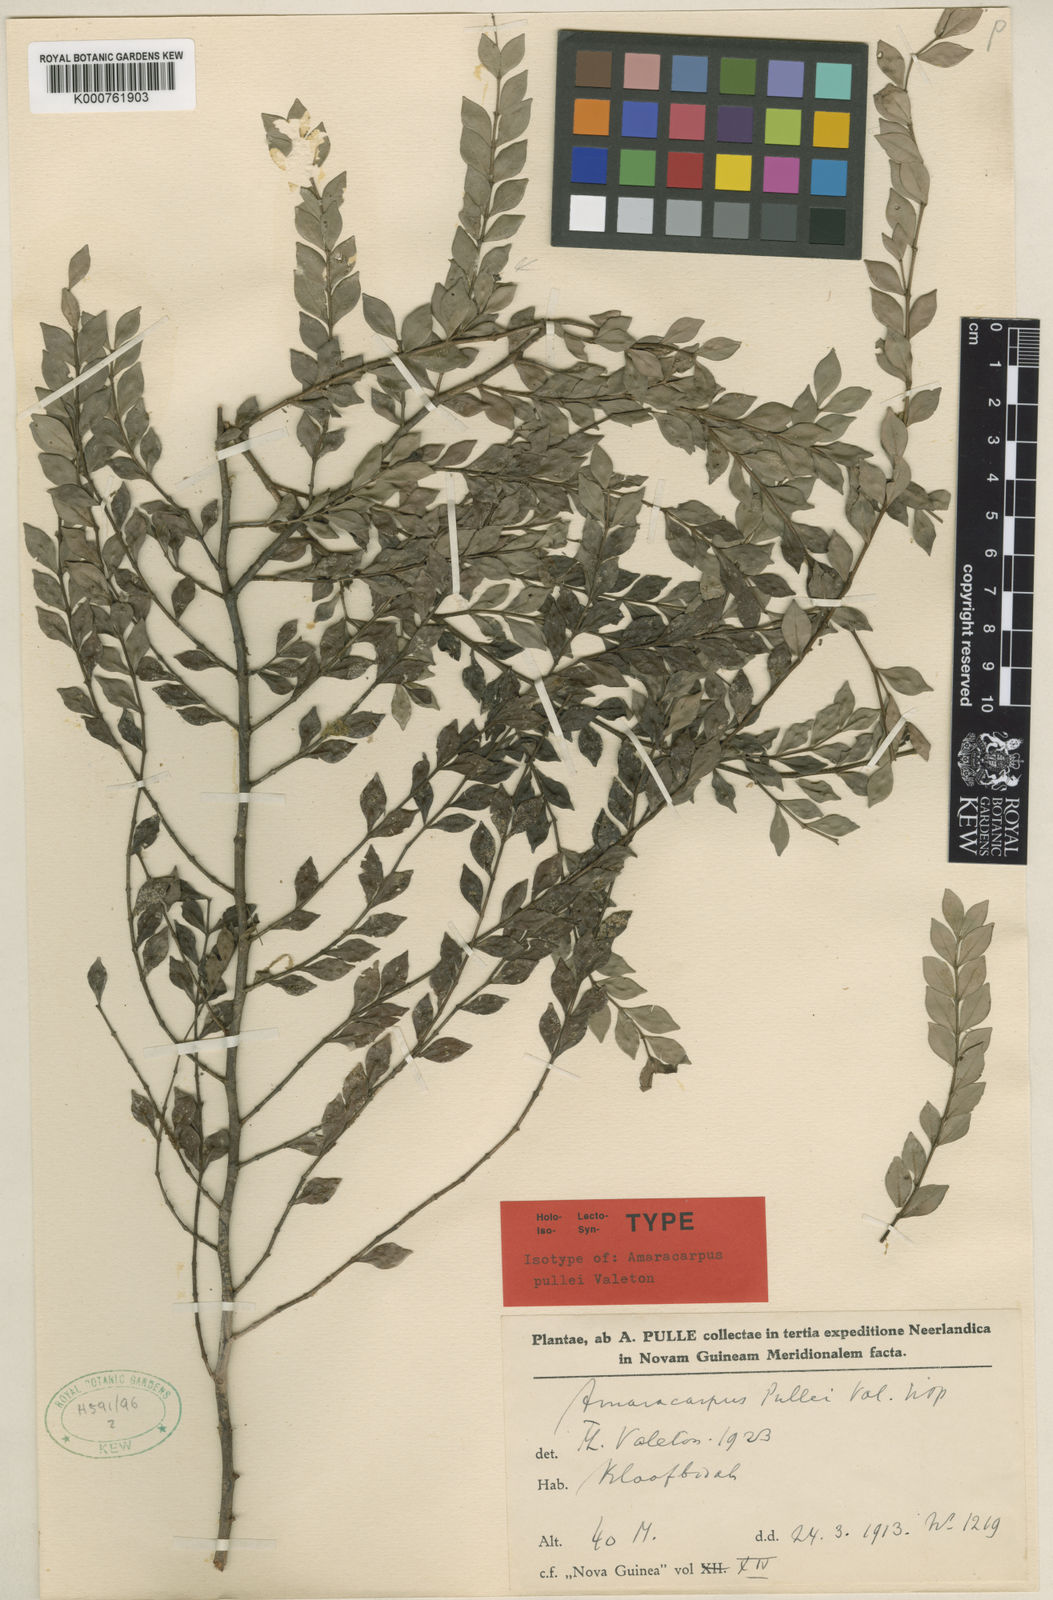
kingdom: Plantae
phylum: Tracheophyta
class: Magnoliopsida
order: Gentianales
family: Rubiaceae
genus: Amaracarpus
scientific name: Amaracarpus acuminatus
